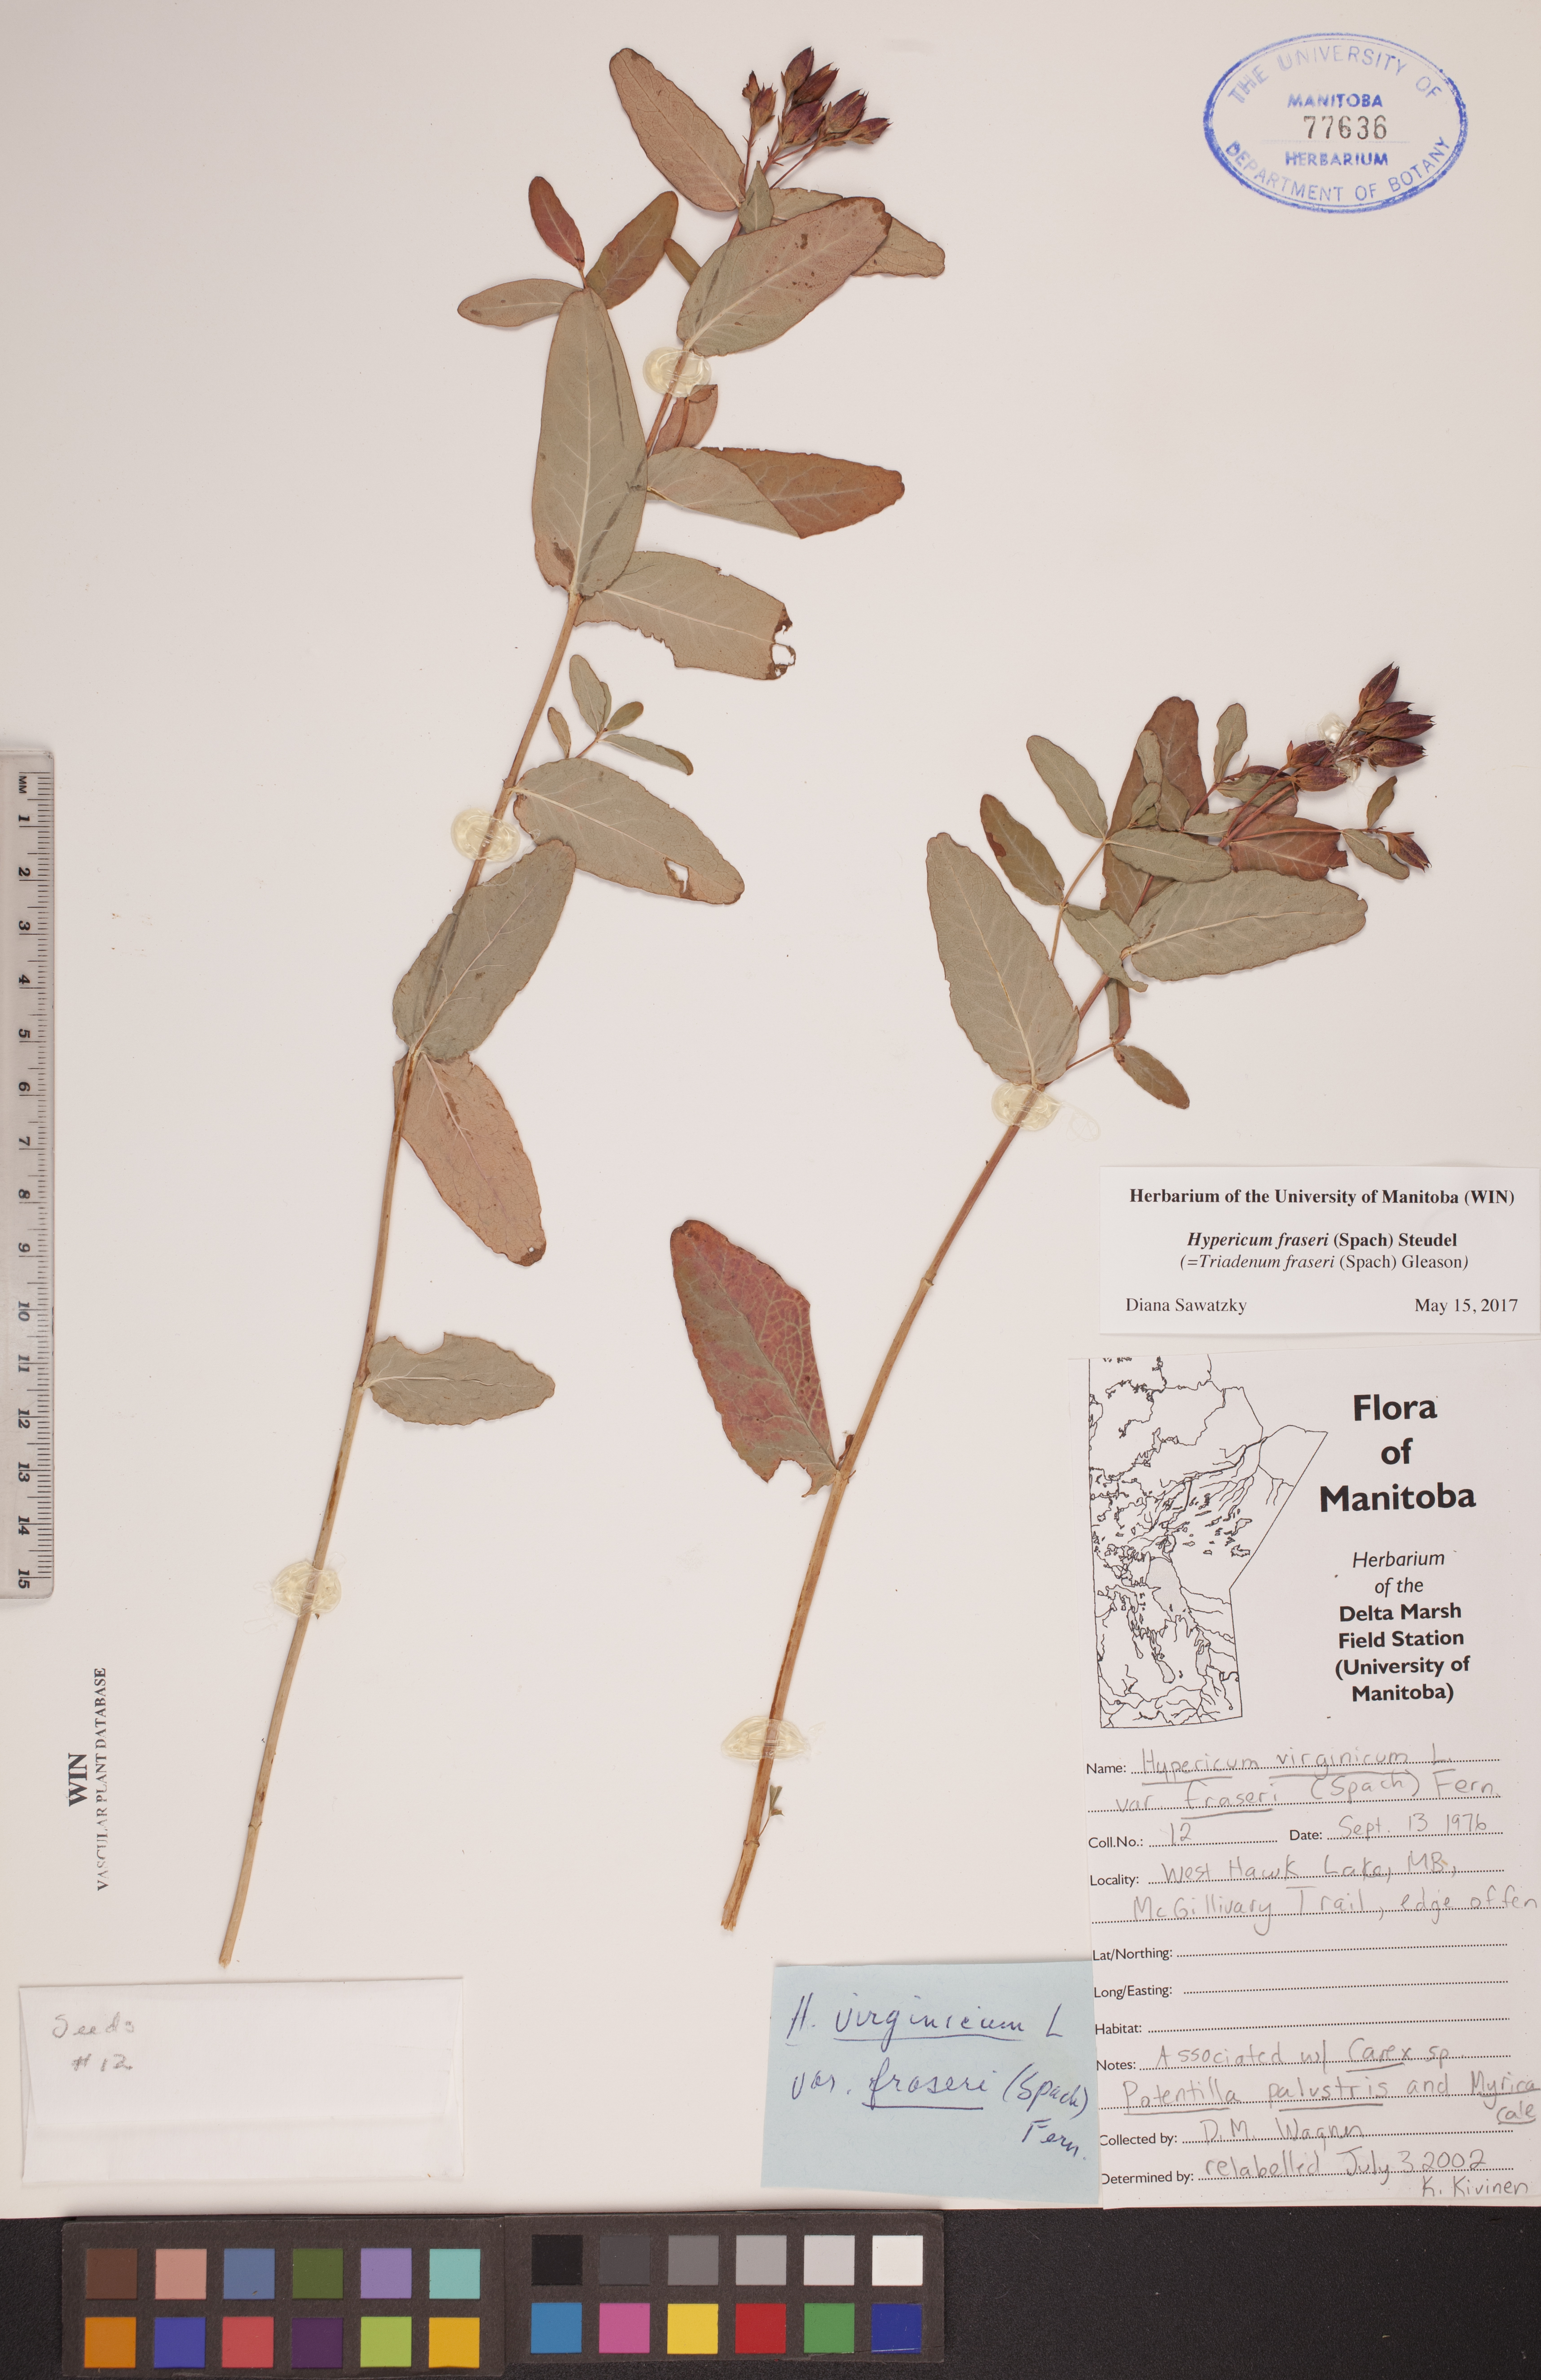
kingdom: Plantae
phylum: Tracheophyta
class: Magnoliopsida
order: Malpighiales
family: Hypericaceae
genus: Triadenum
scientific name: Triadenum fraseri
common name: Fraser's marsh st. johnswort
